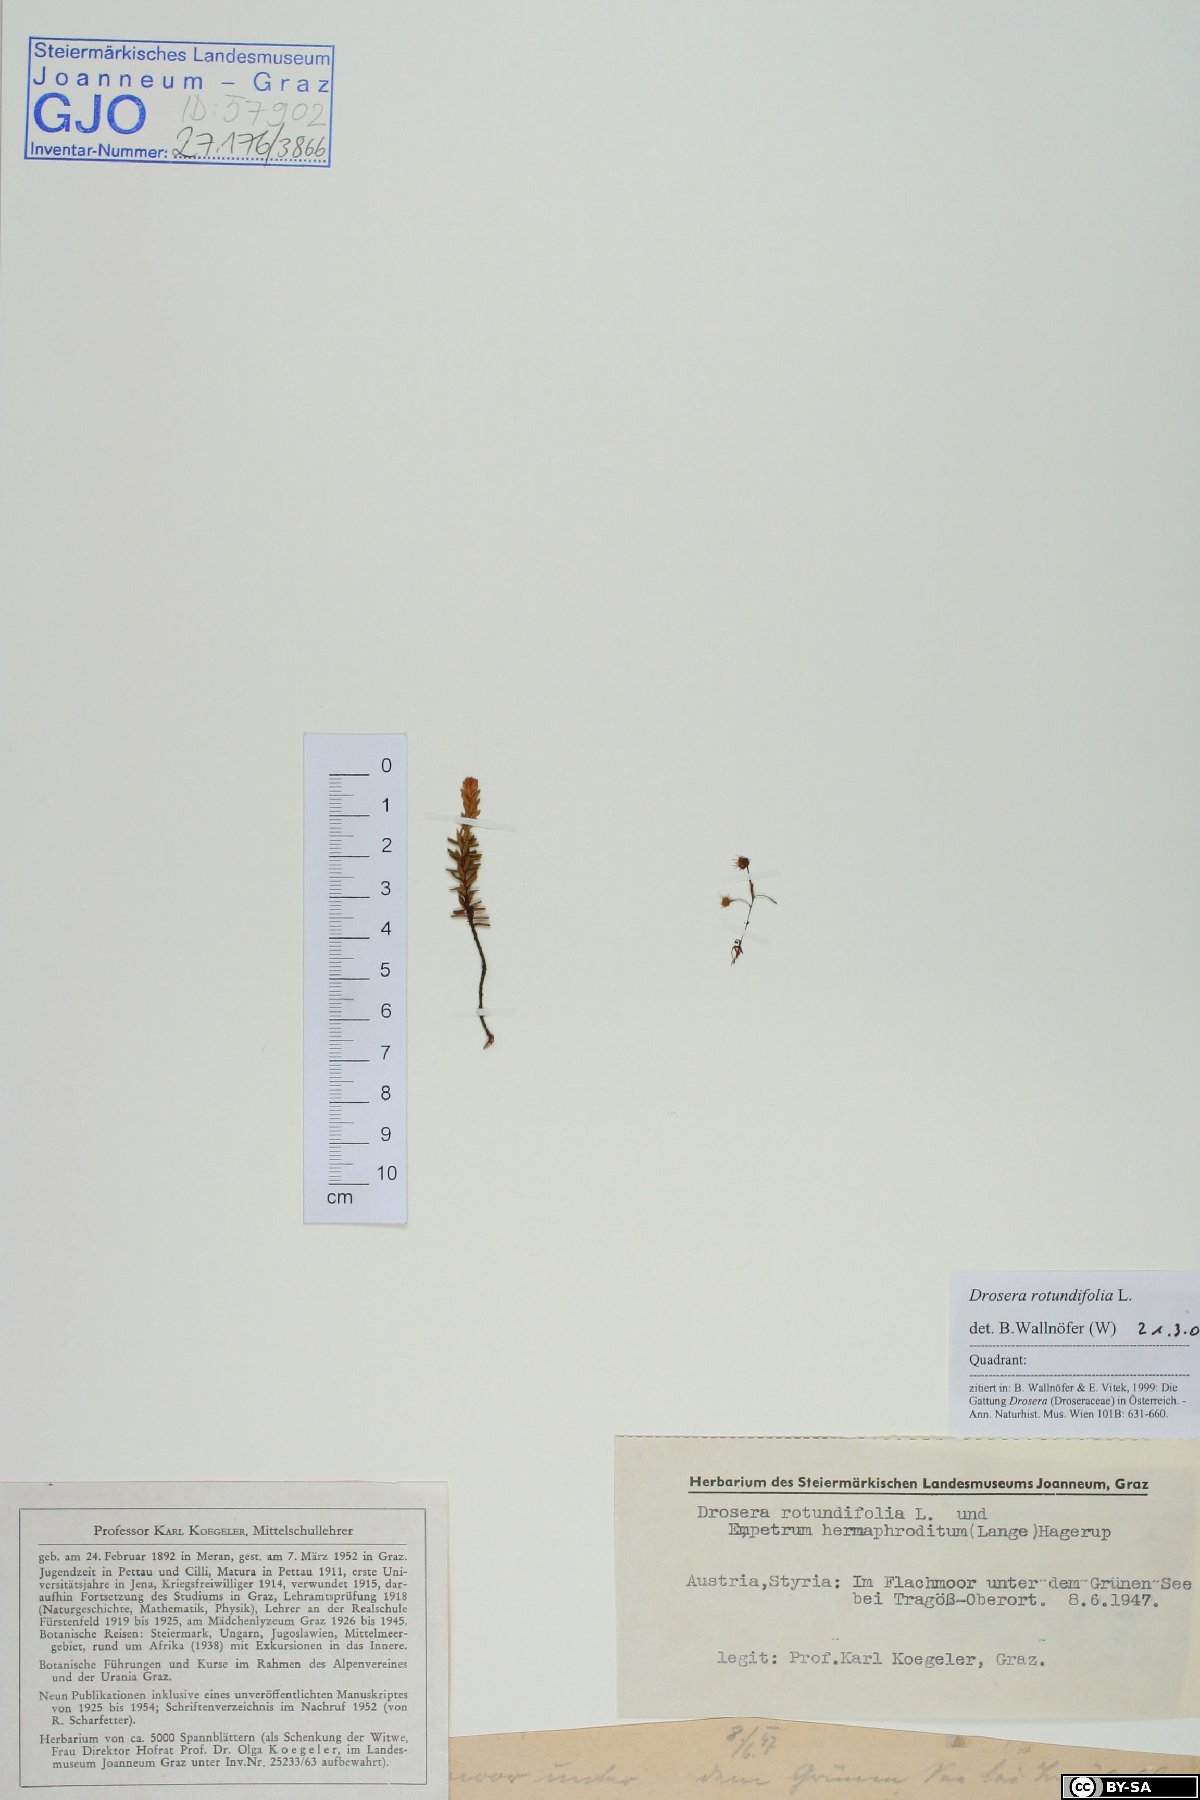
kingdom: Plantae
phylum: Tracheophyta
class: Magnoliopsida
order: Caryophyllales
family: Droseraceae
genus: Drosera
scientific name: Drosera rotundifolia
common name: Round-leaved sundew
